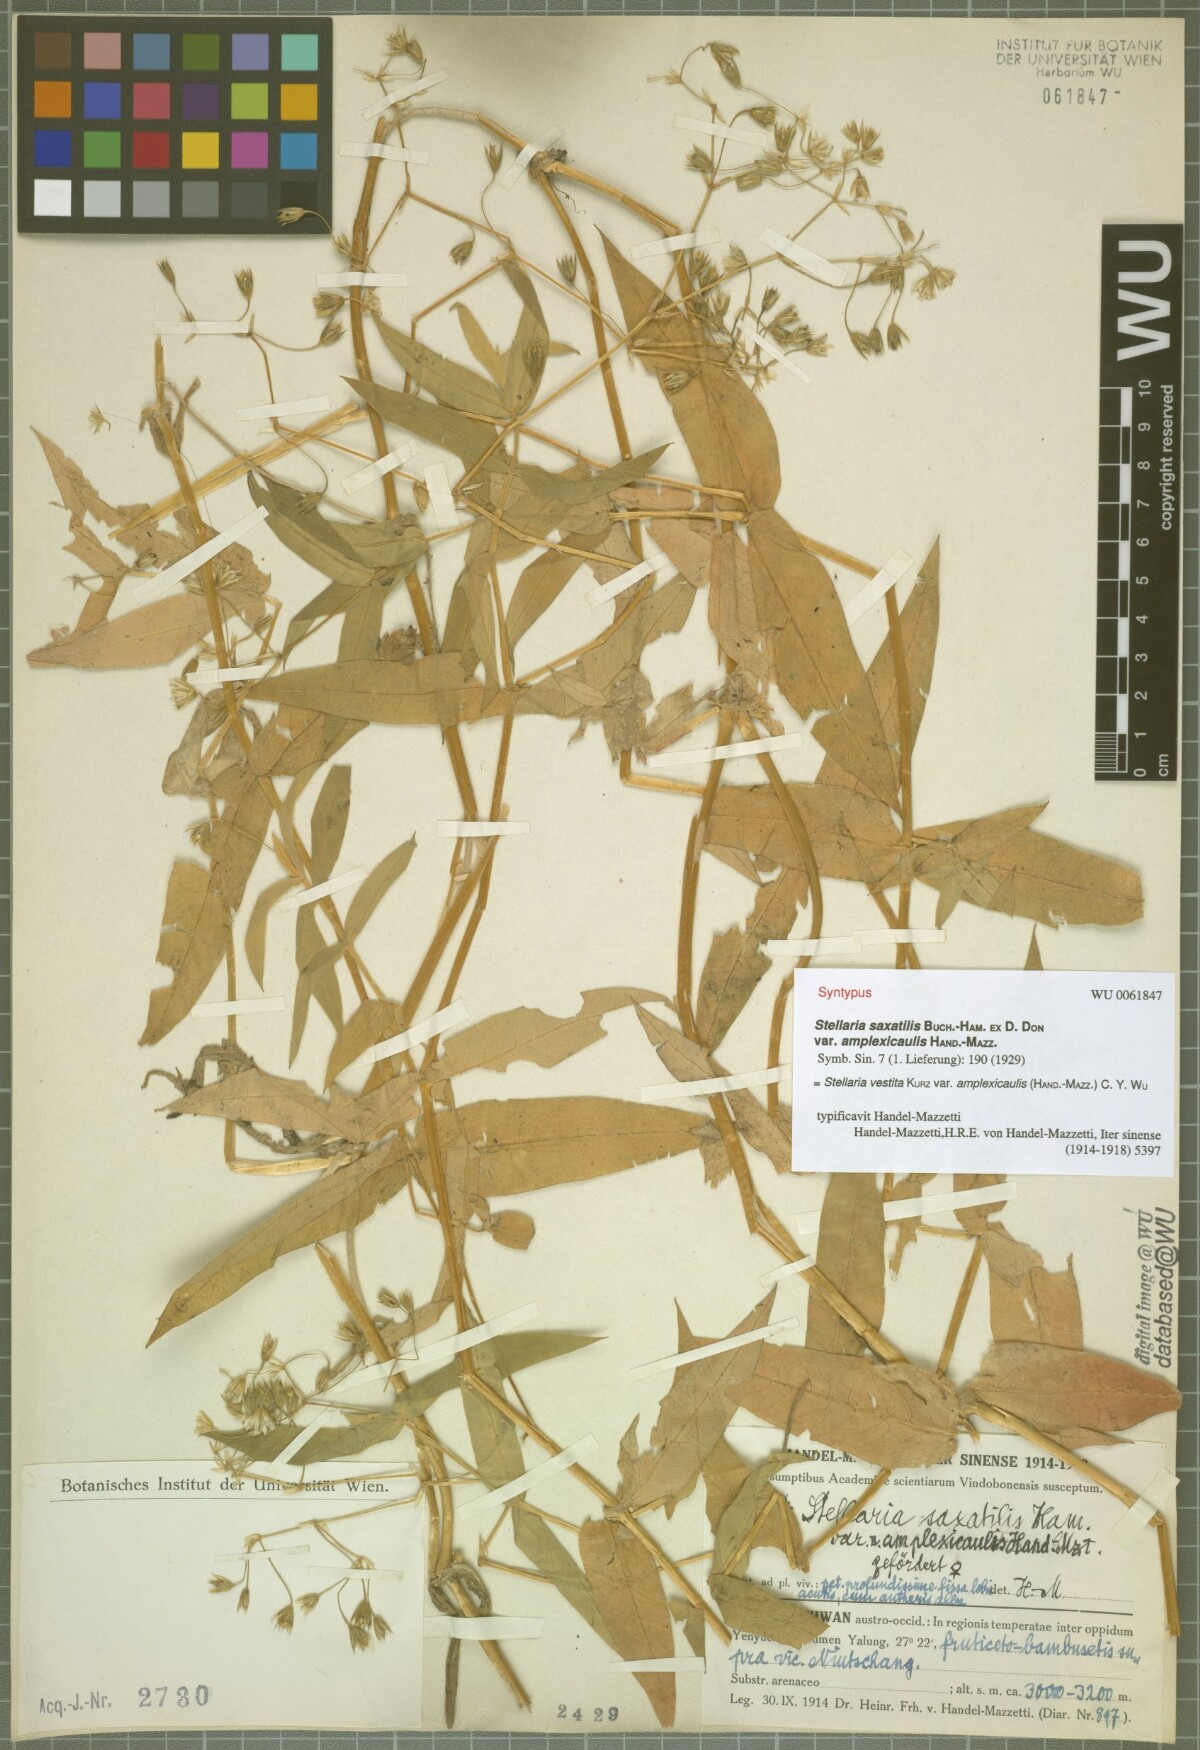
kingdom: Plantae
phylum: Tracheophyta
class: Magnoliopsida
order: Caryophyllales
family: Caryophyllaceae
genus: Stellaria
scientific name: Stellaria amplexicaulis
